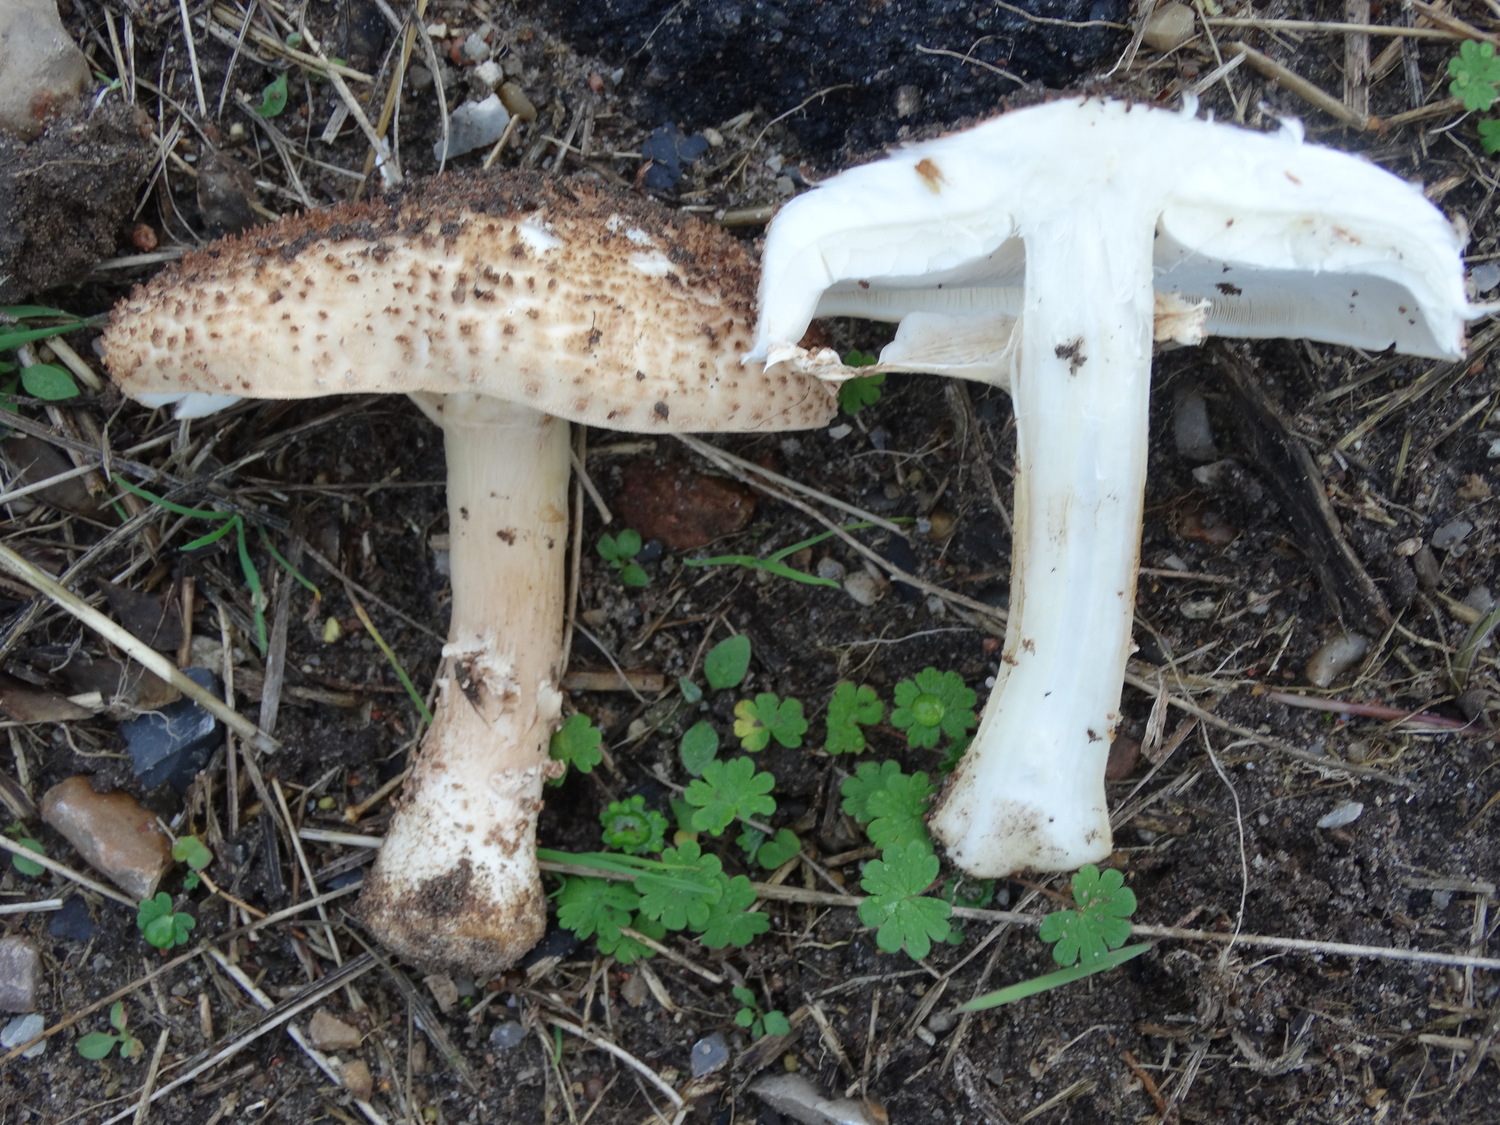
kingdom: Fungi
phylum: Basidiomycota
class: Agaricomycetes
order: Agaricales
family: Agaricaceae
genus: Echinoderma
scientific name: Echinoderma asperum
